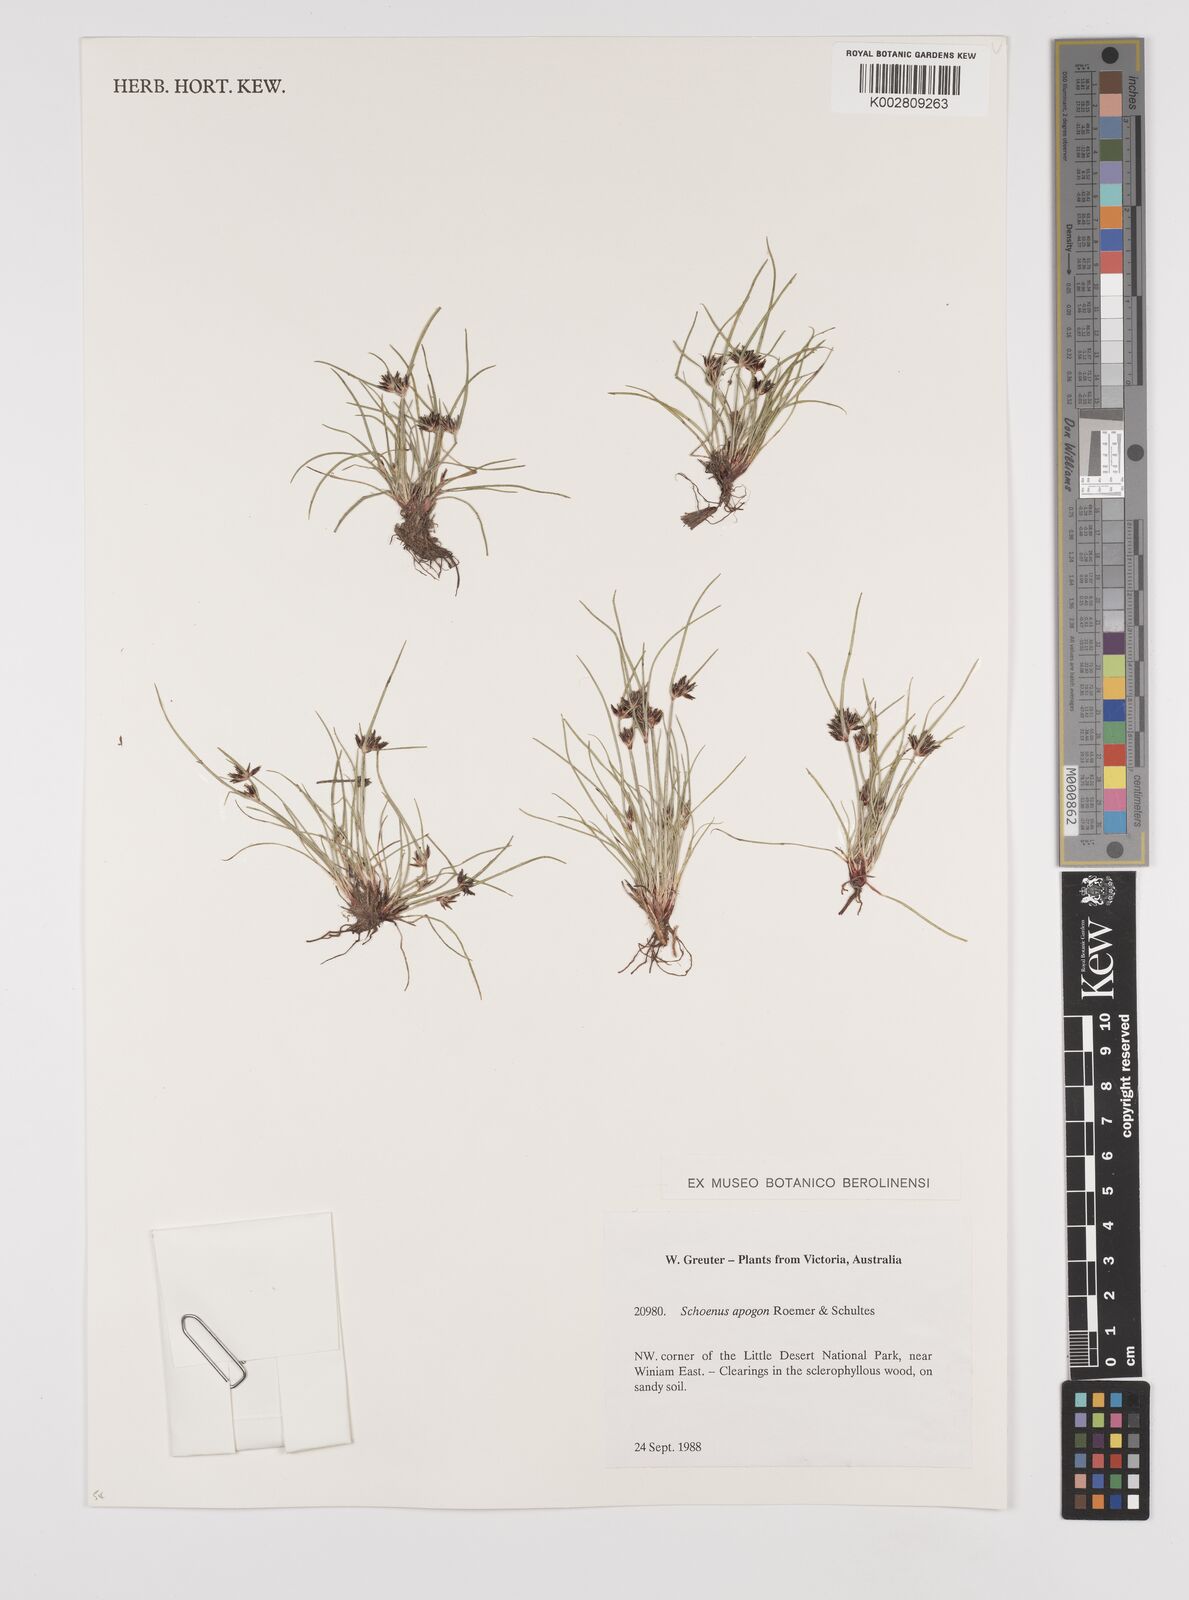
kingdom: Plantae
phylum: Tracheophyta
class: Liliopsida
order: Poales
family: Cyperaceae
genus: Schoenus
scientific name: Schoenus apogon
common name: Smooth bogrush
